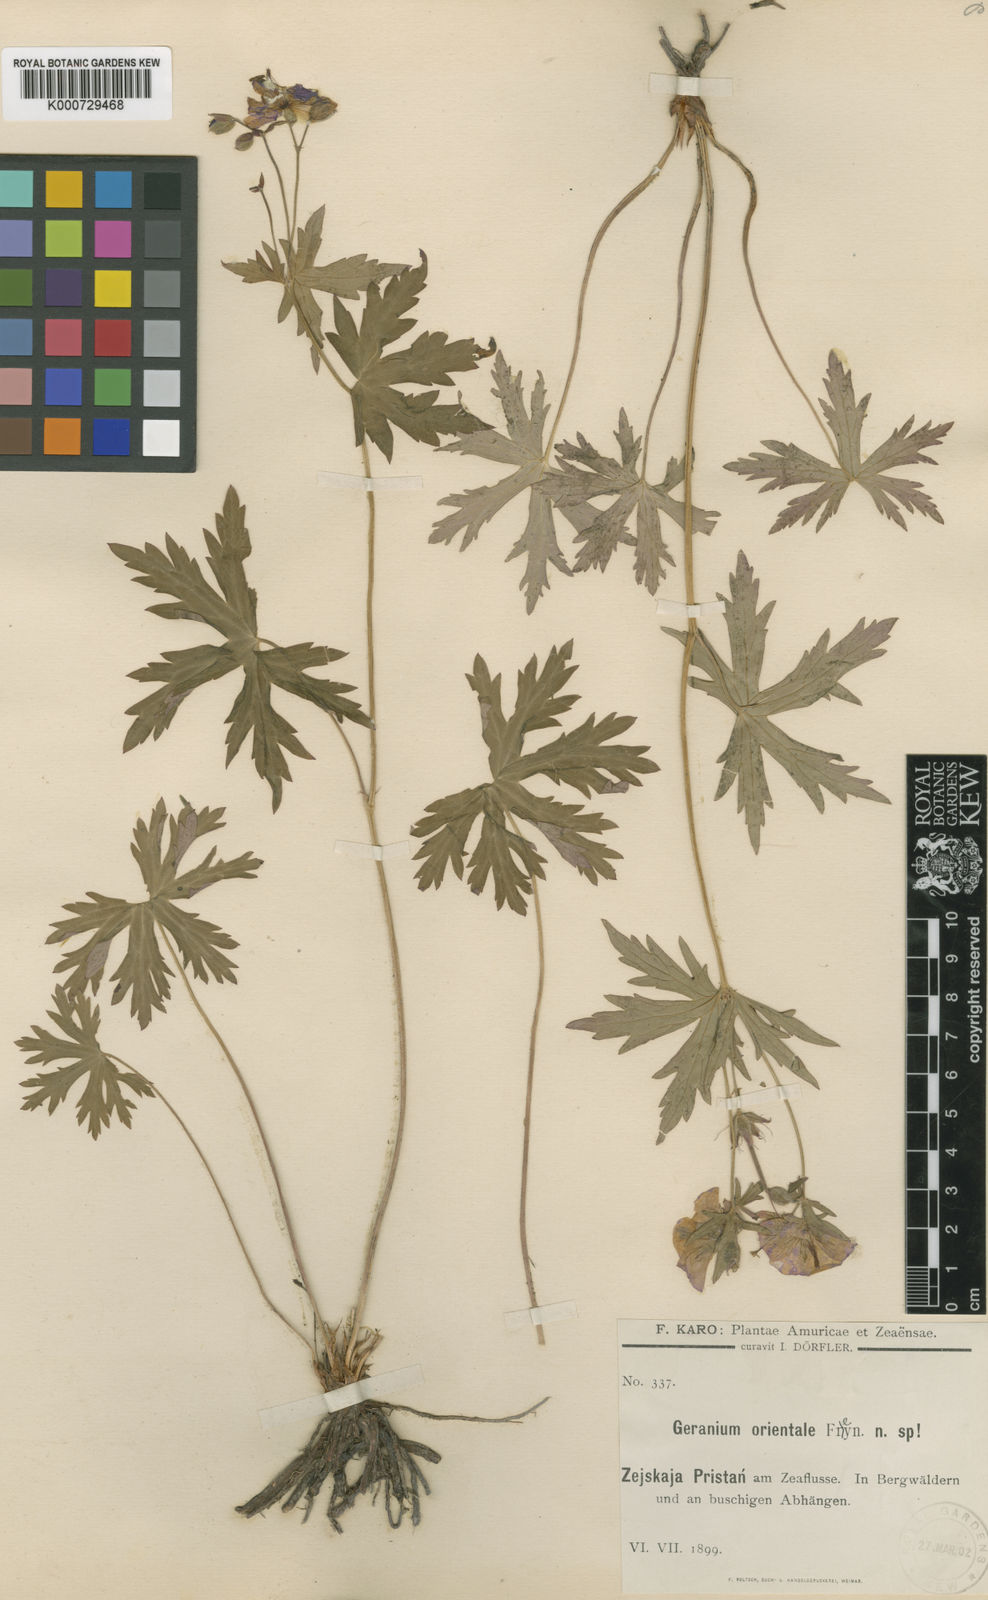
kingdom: Plantae
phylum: Tracheophyta
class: Magnoliopsida
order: Geraniales
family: Geraniaceae
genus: Geranium
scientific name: Geranium asphodeloides
